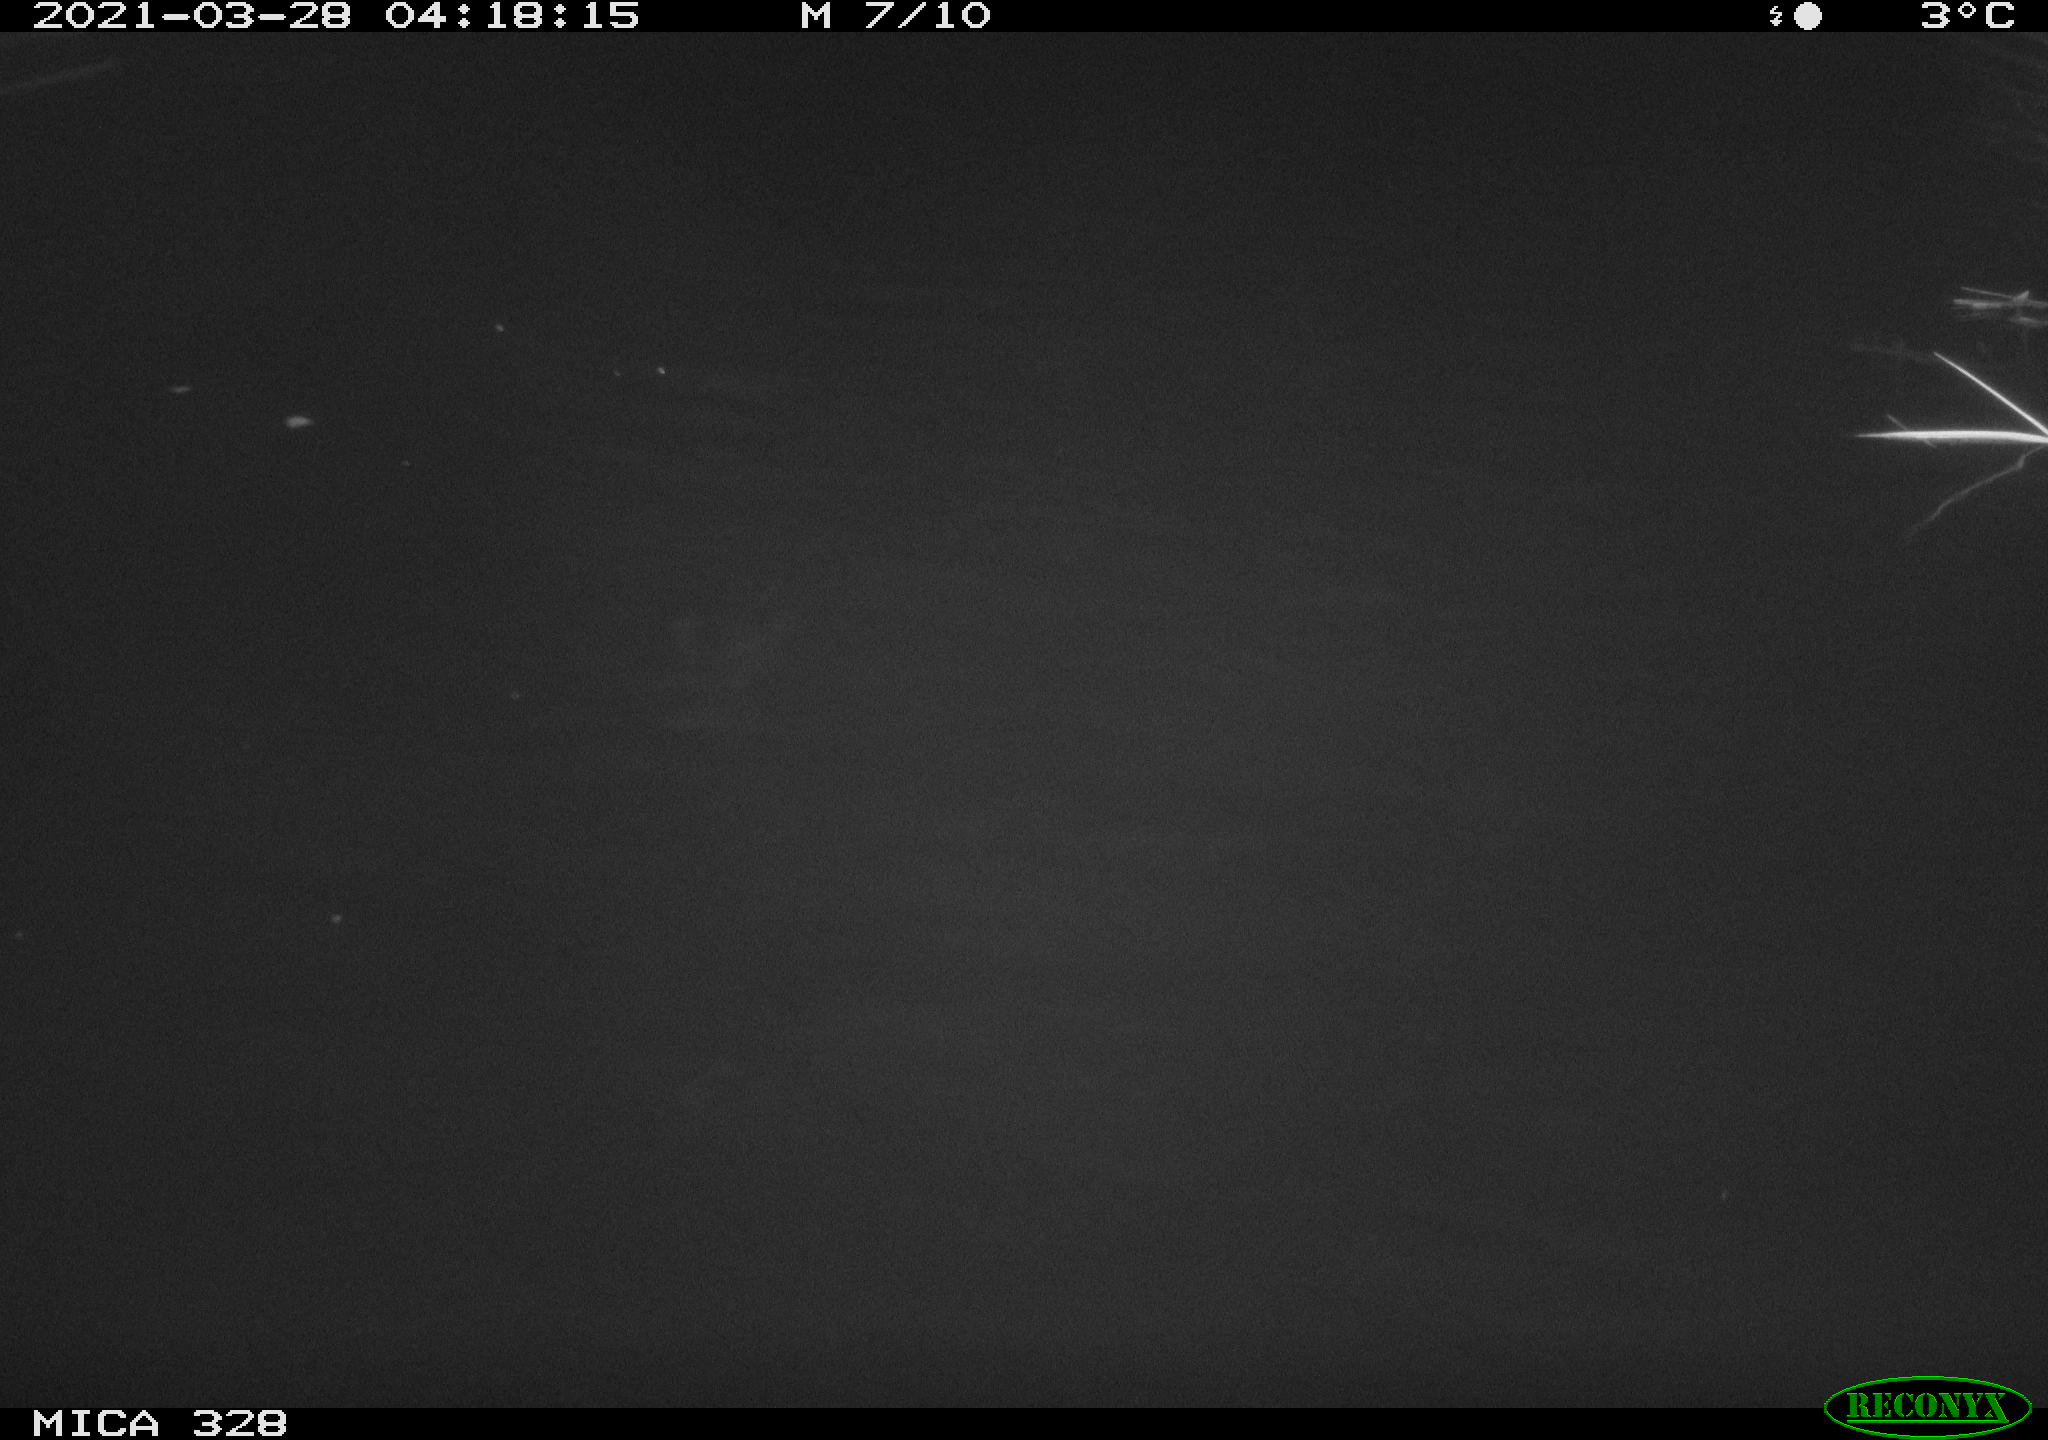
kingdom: Animalia
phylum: Chordata
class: Mammalia
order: Rodentia
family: Cricetidae
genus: Ondatra
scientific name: Ondatra zibethicus
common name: Muskrat
